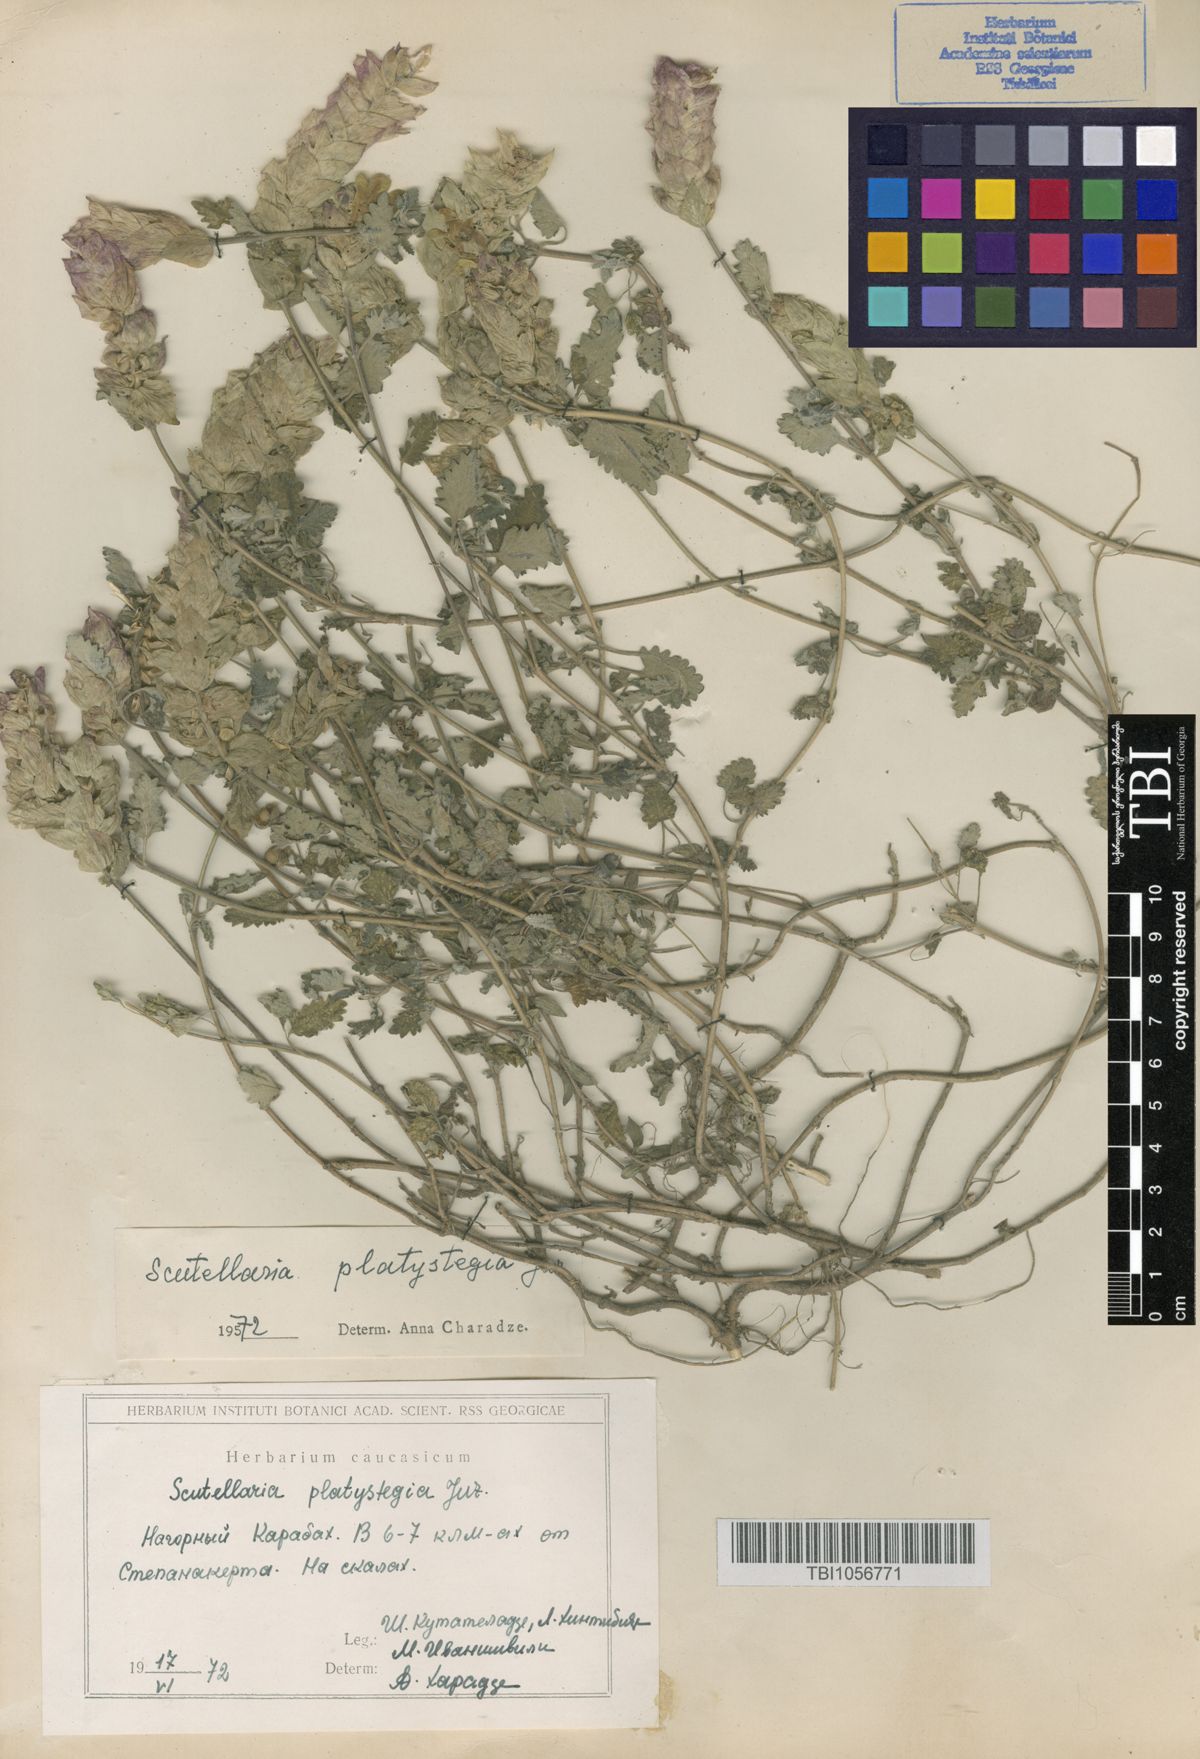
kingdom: Plantae
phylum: Tracheophyta
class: Magnoliopsida
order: Lamiales
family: Lamiaceae
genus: Scutellaria
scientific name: Scutellaria platystegia
